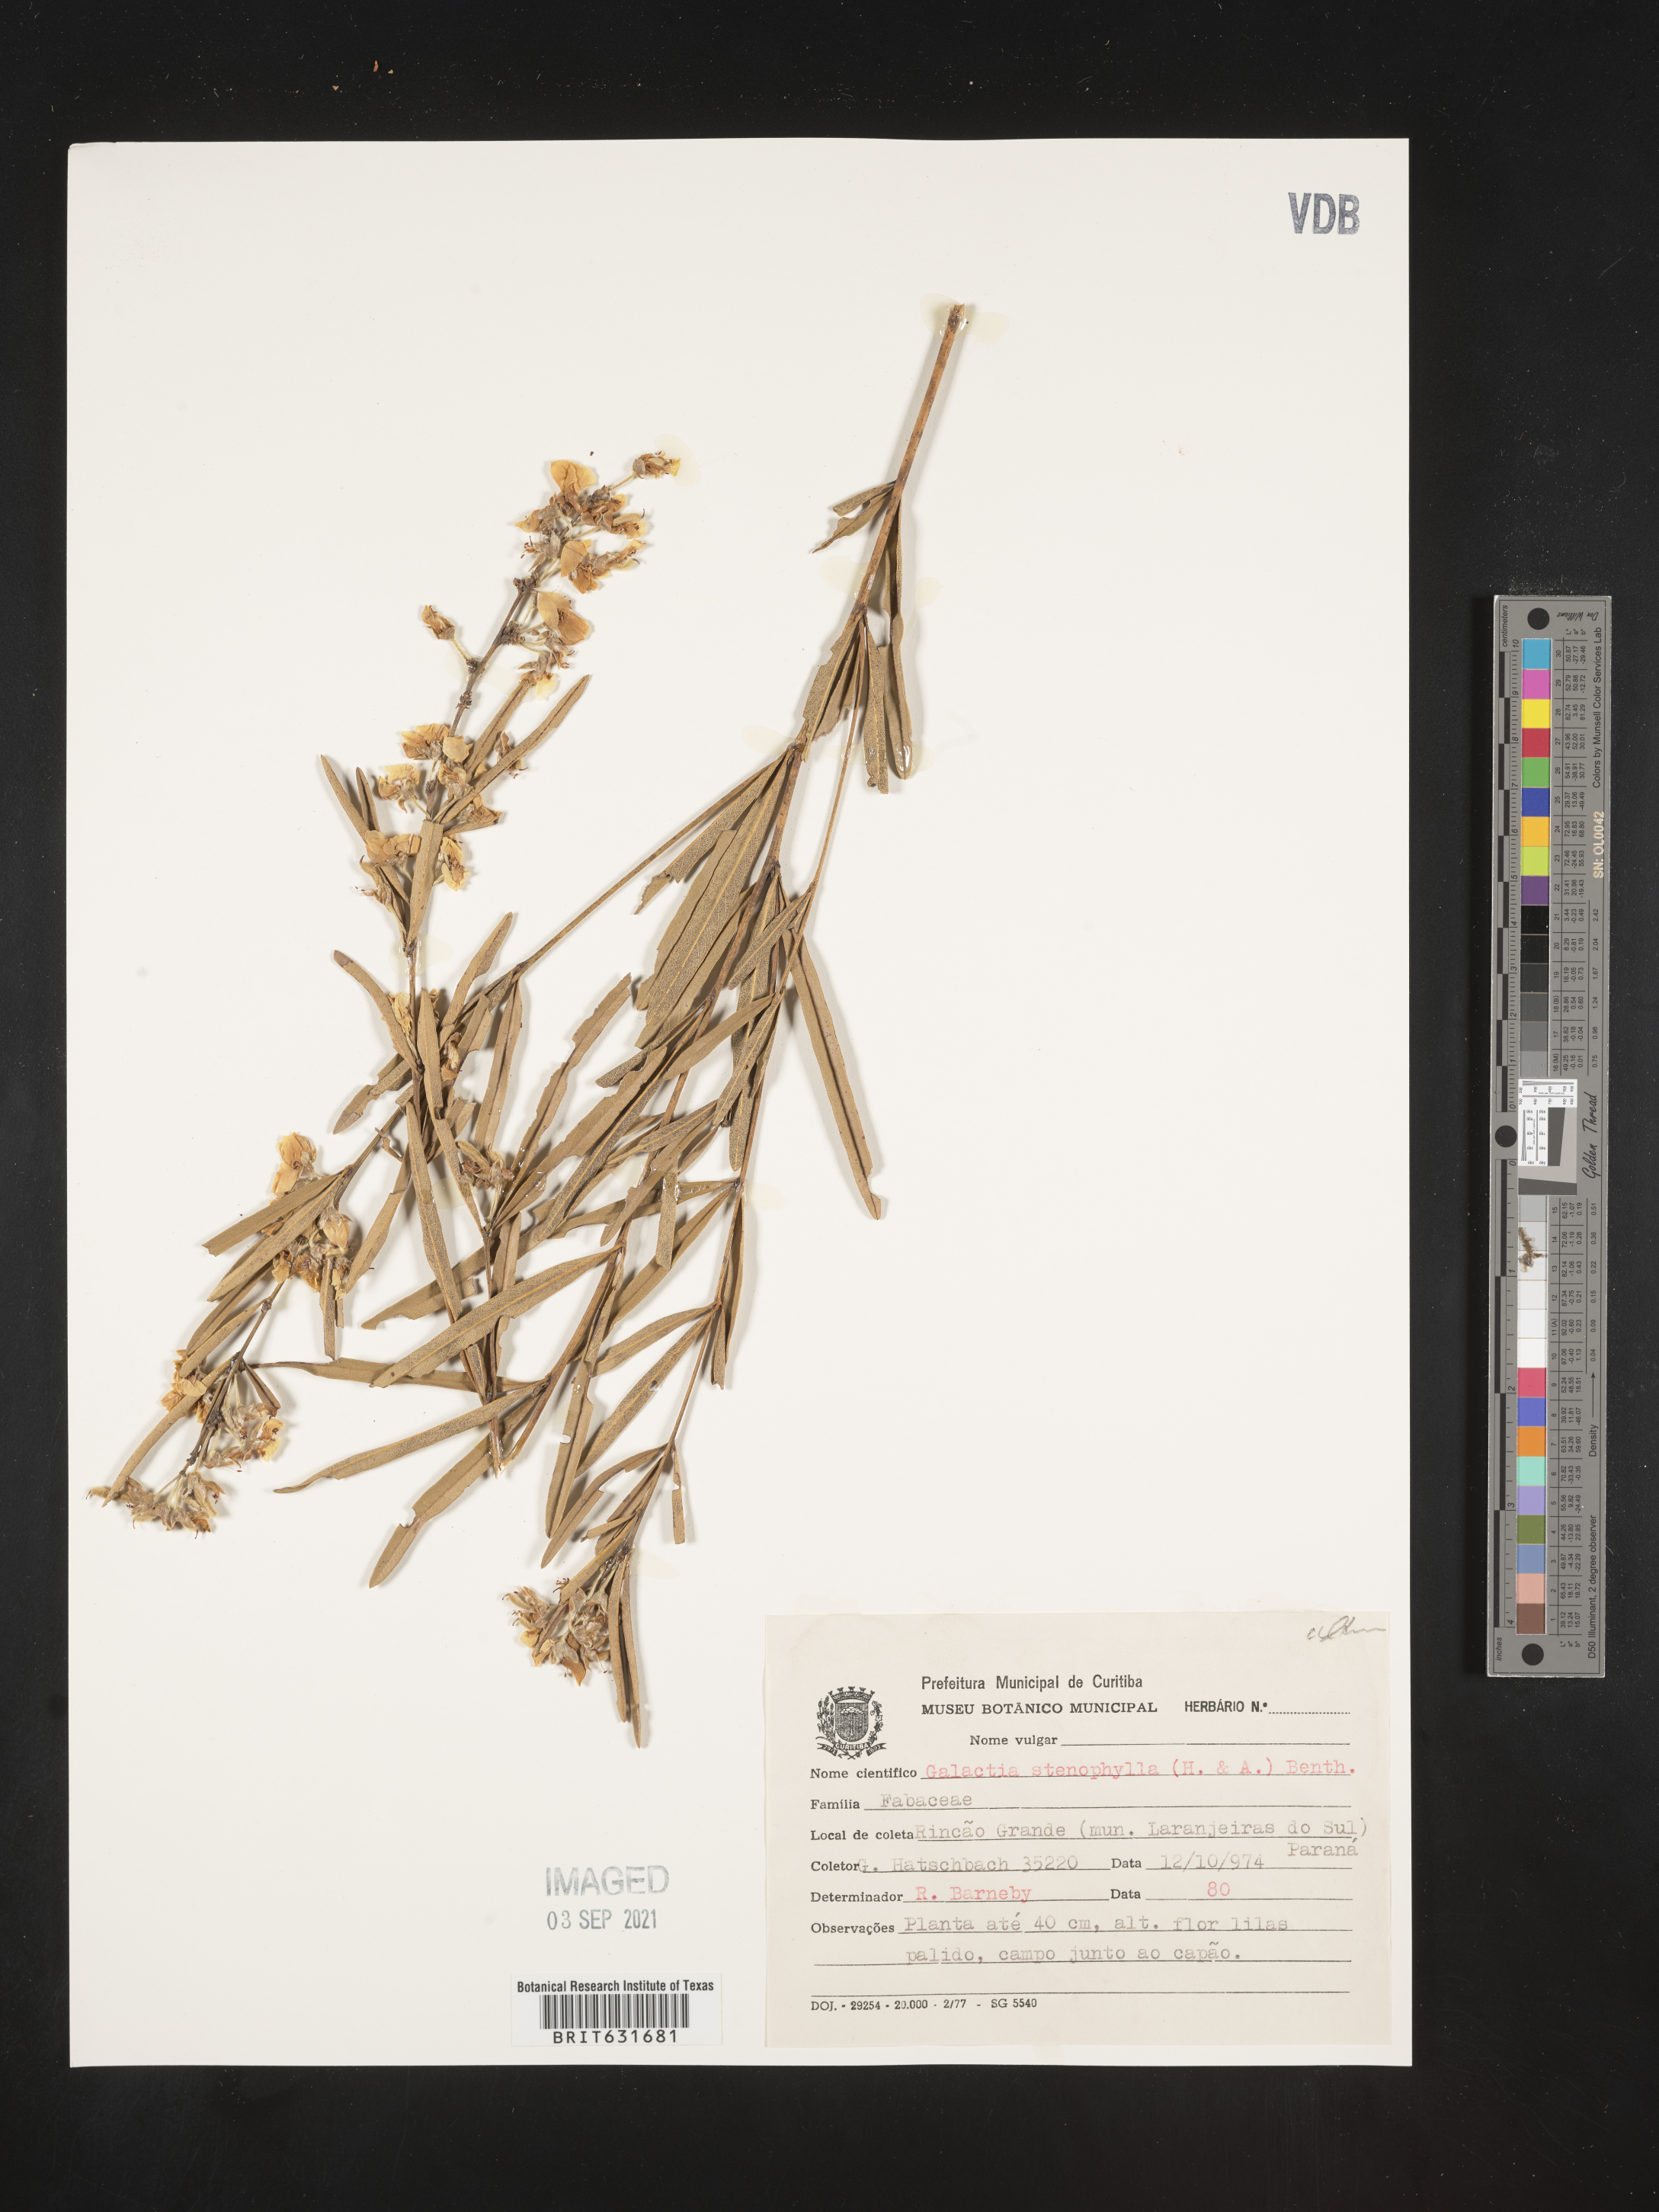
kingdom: Plantae
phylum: Tracheophyta
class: Magnoliopsida
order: Fabales
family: Fabaceae
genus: Galactia
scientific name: Galactia
